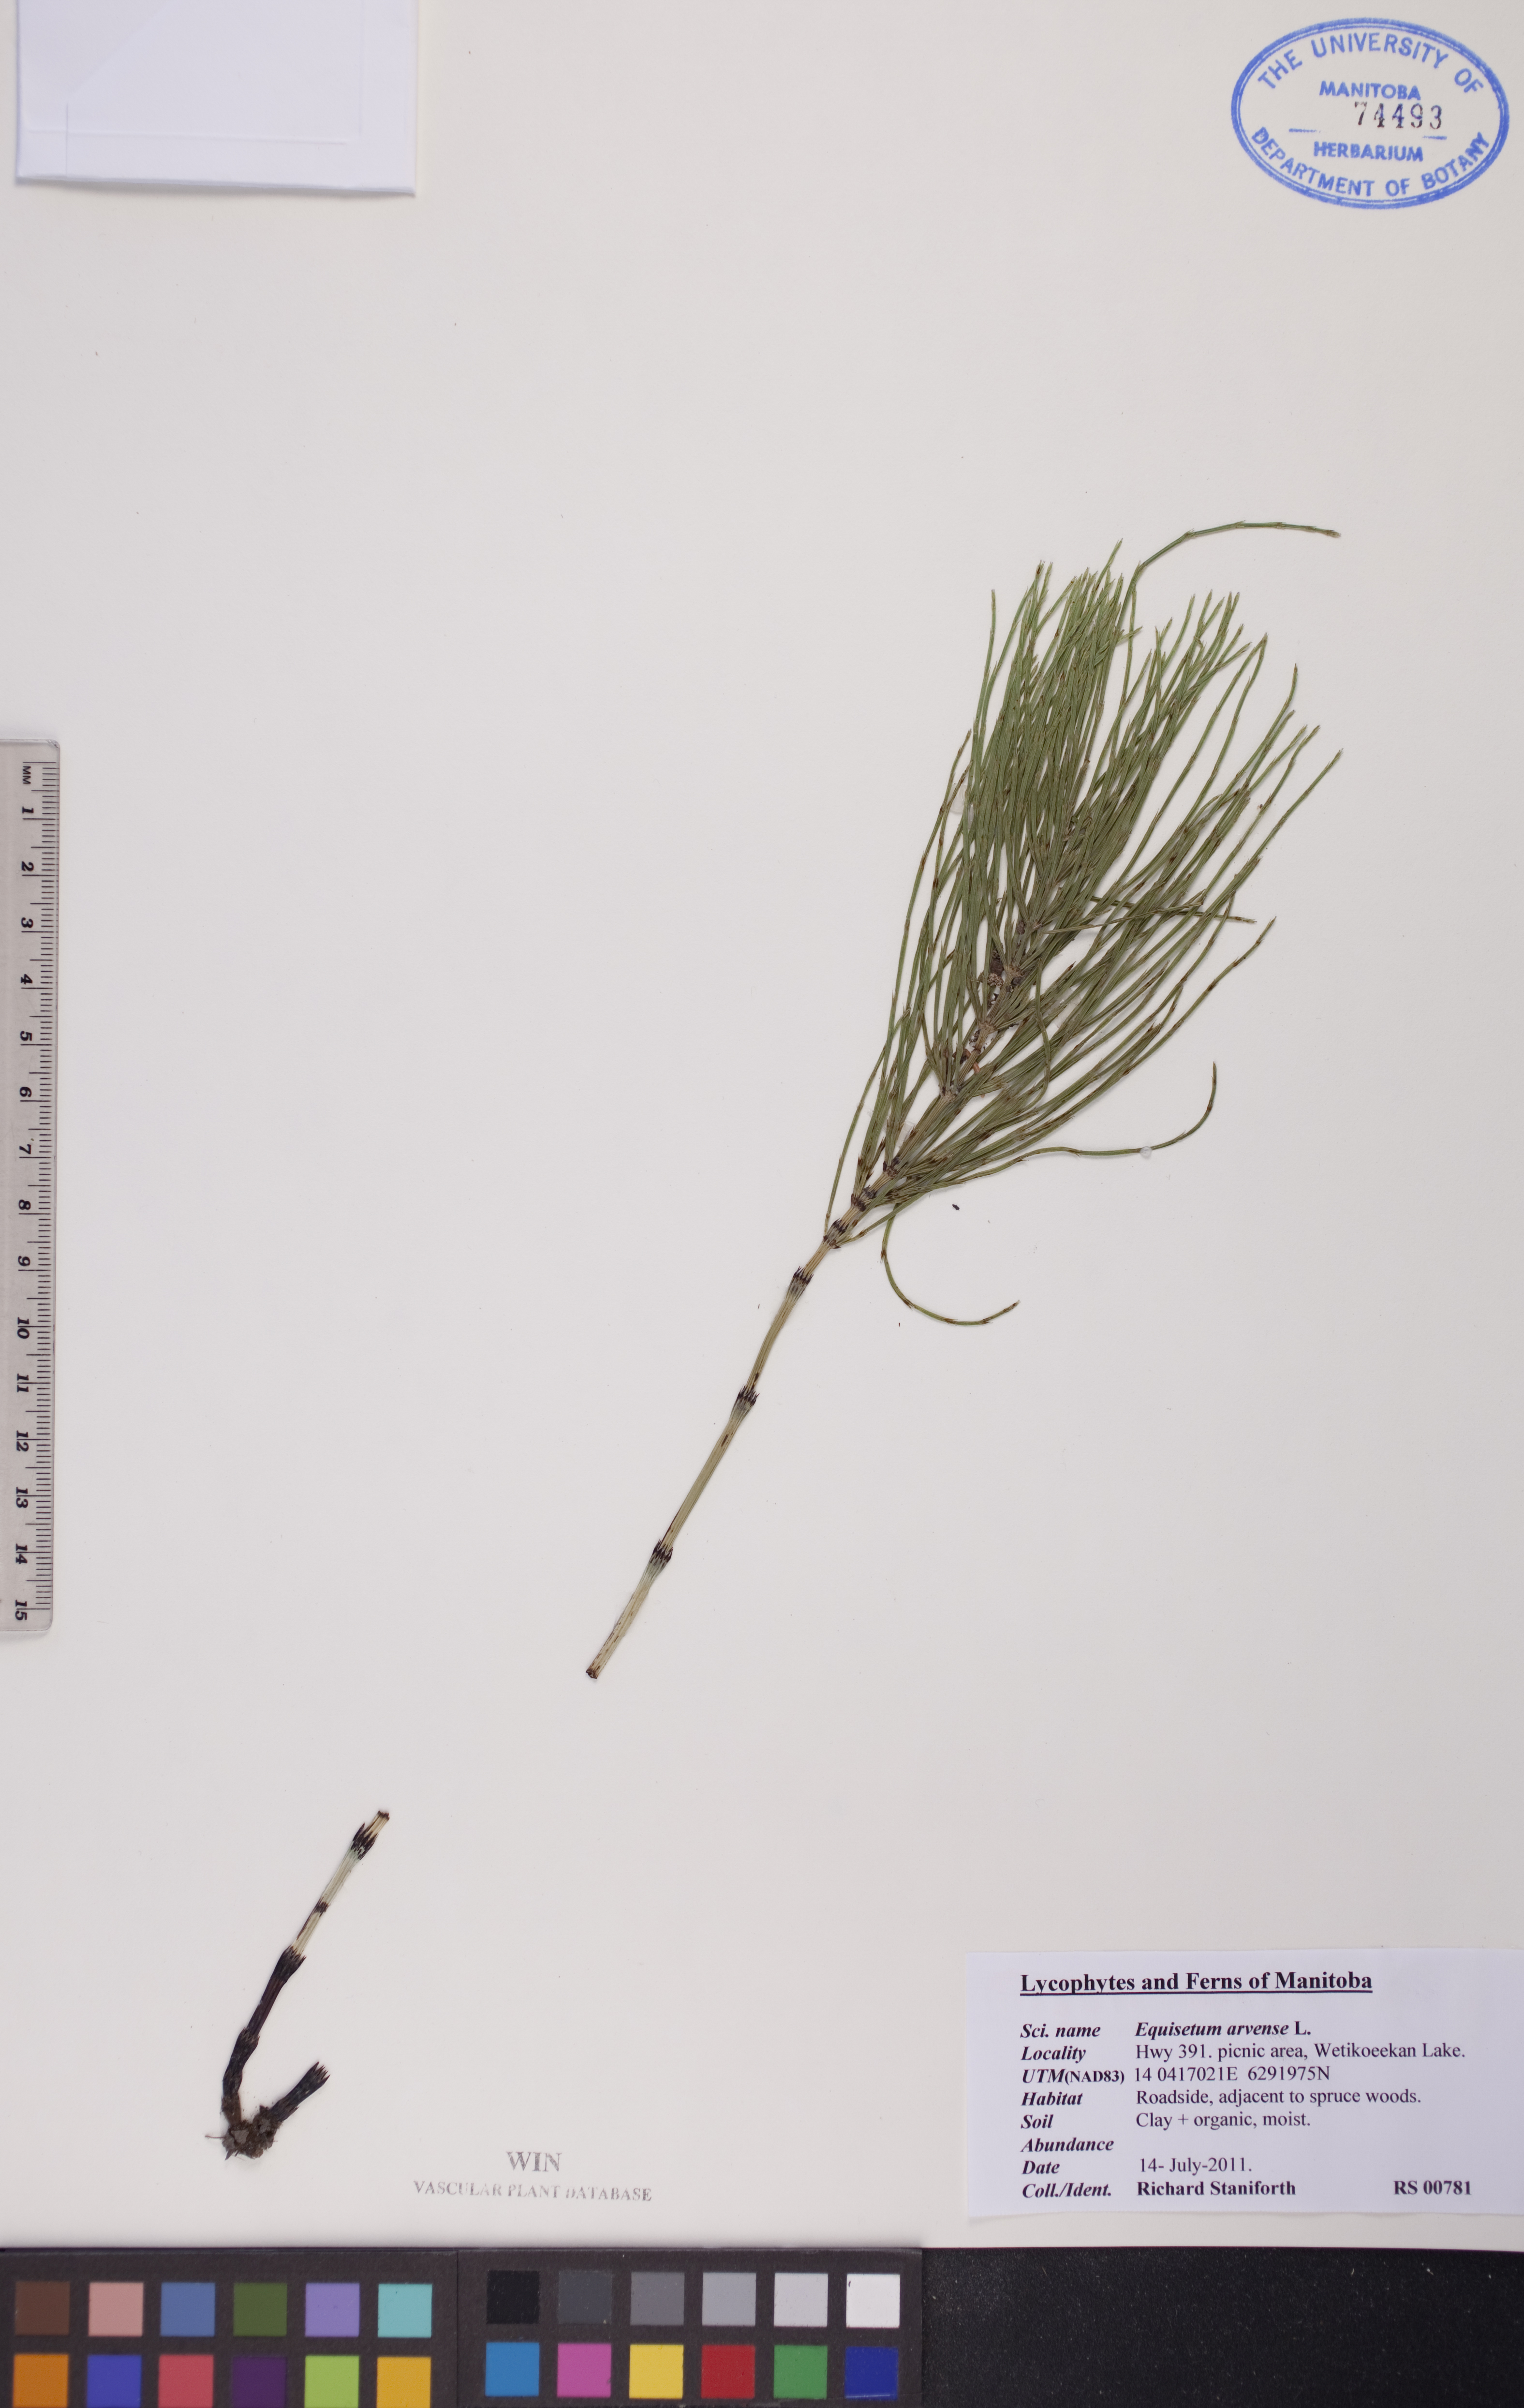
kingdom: Plantae
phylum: Tracheophyta
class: Polypodiopsida
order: Equisetales
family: Equisetaceae
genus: Equisetum
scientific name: Equisetum arvense
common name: Field horsetail
